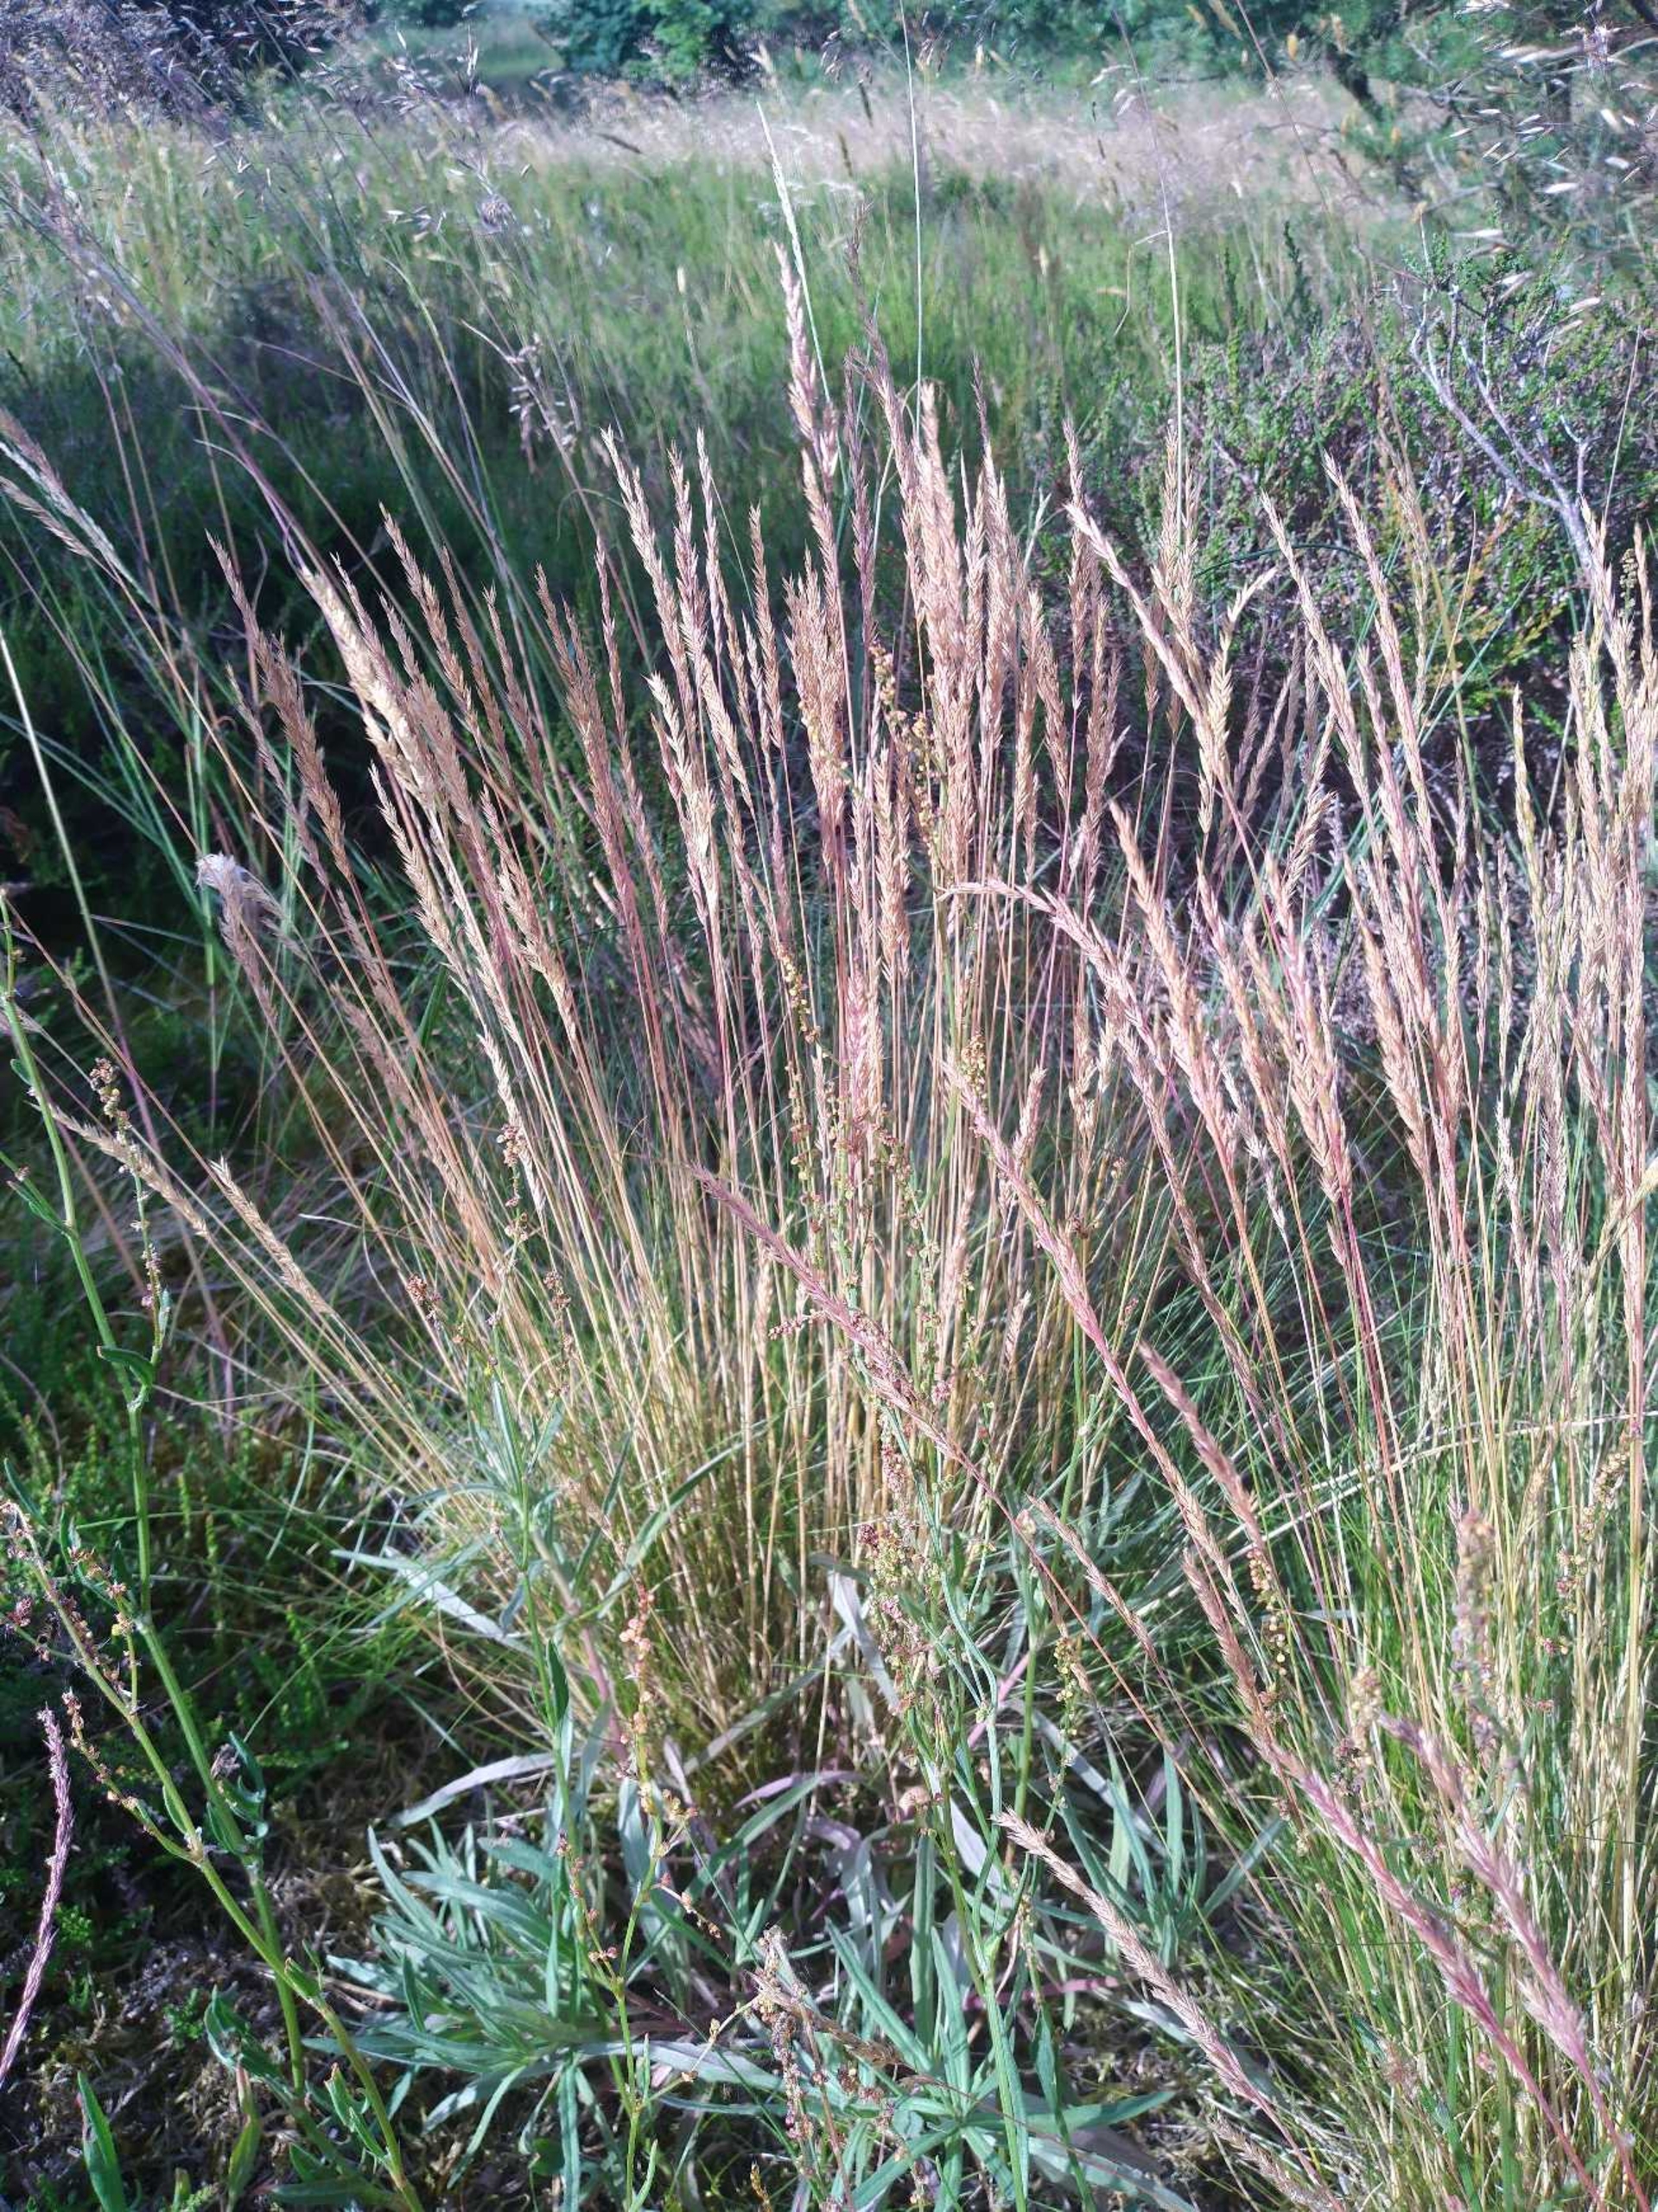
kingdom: Plantae
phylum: Tracheophyta
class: Liliopsida
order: Poales
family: Poaceae
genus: Festuca
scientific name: Festuca ovina
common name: Fåre-svingel
